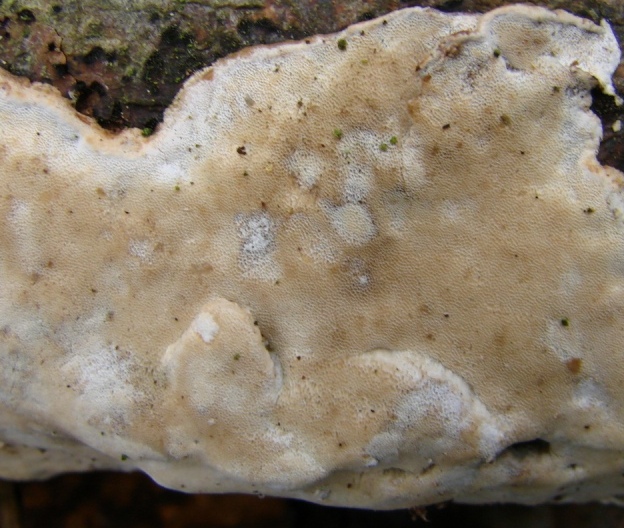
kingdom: Fungi
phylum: Basidiomycota
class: Agaricomycetes
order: Polyporales
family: Incrustoporiaceae
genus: Skeletocutis
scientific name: Skeletocutis nemoralis
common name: stor krystalporesvamp
